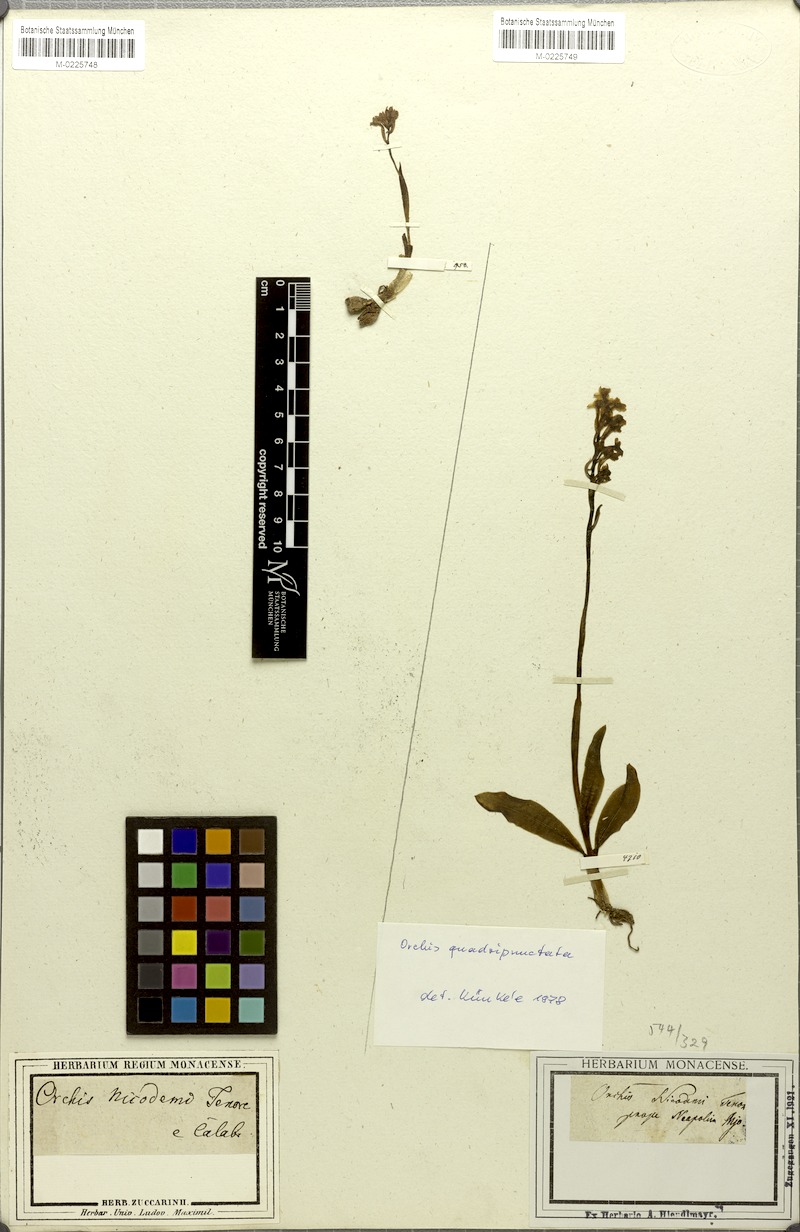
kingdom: Plantae
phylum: Tracheophyta
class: Liliopsida
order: Asparagales
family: Orchidaceae
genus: Orchis
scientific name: Orchis quadripunctata
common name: Four-spotted orchid
